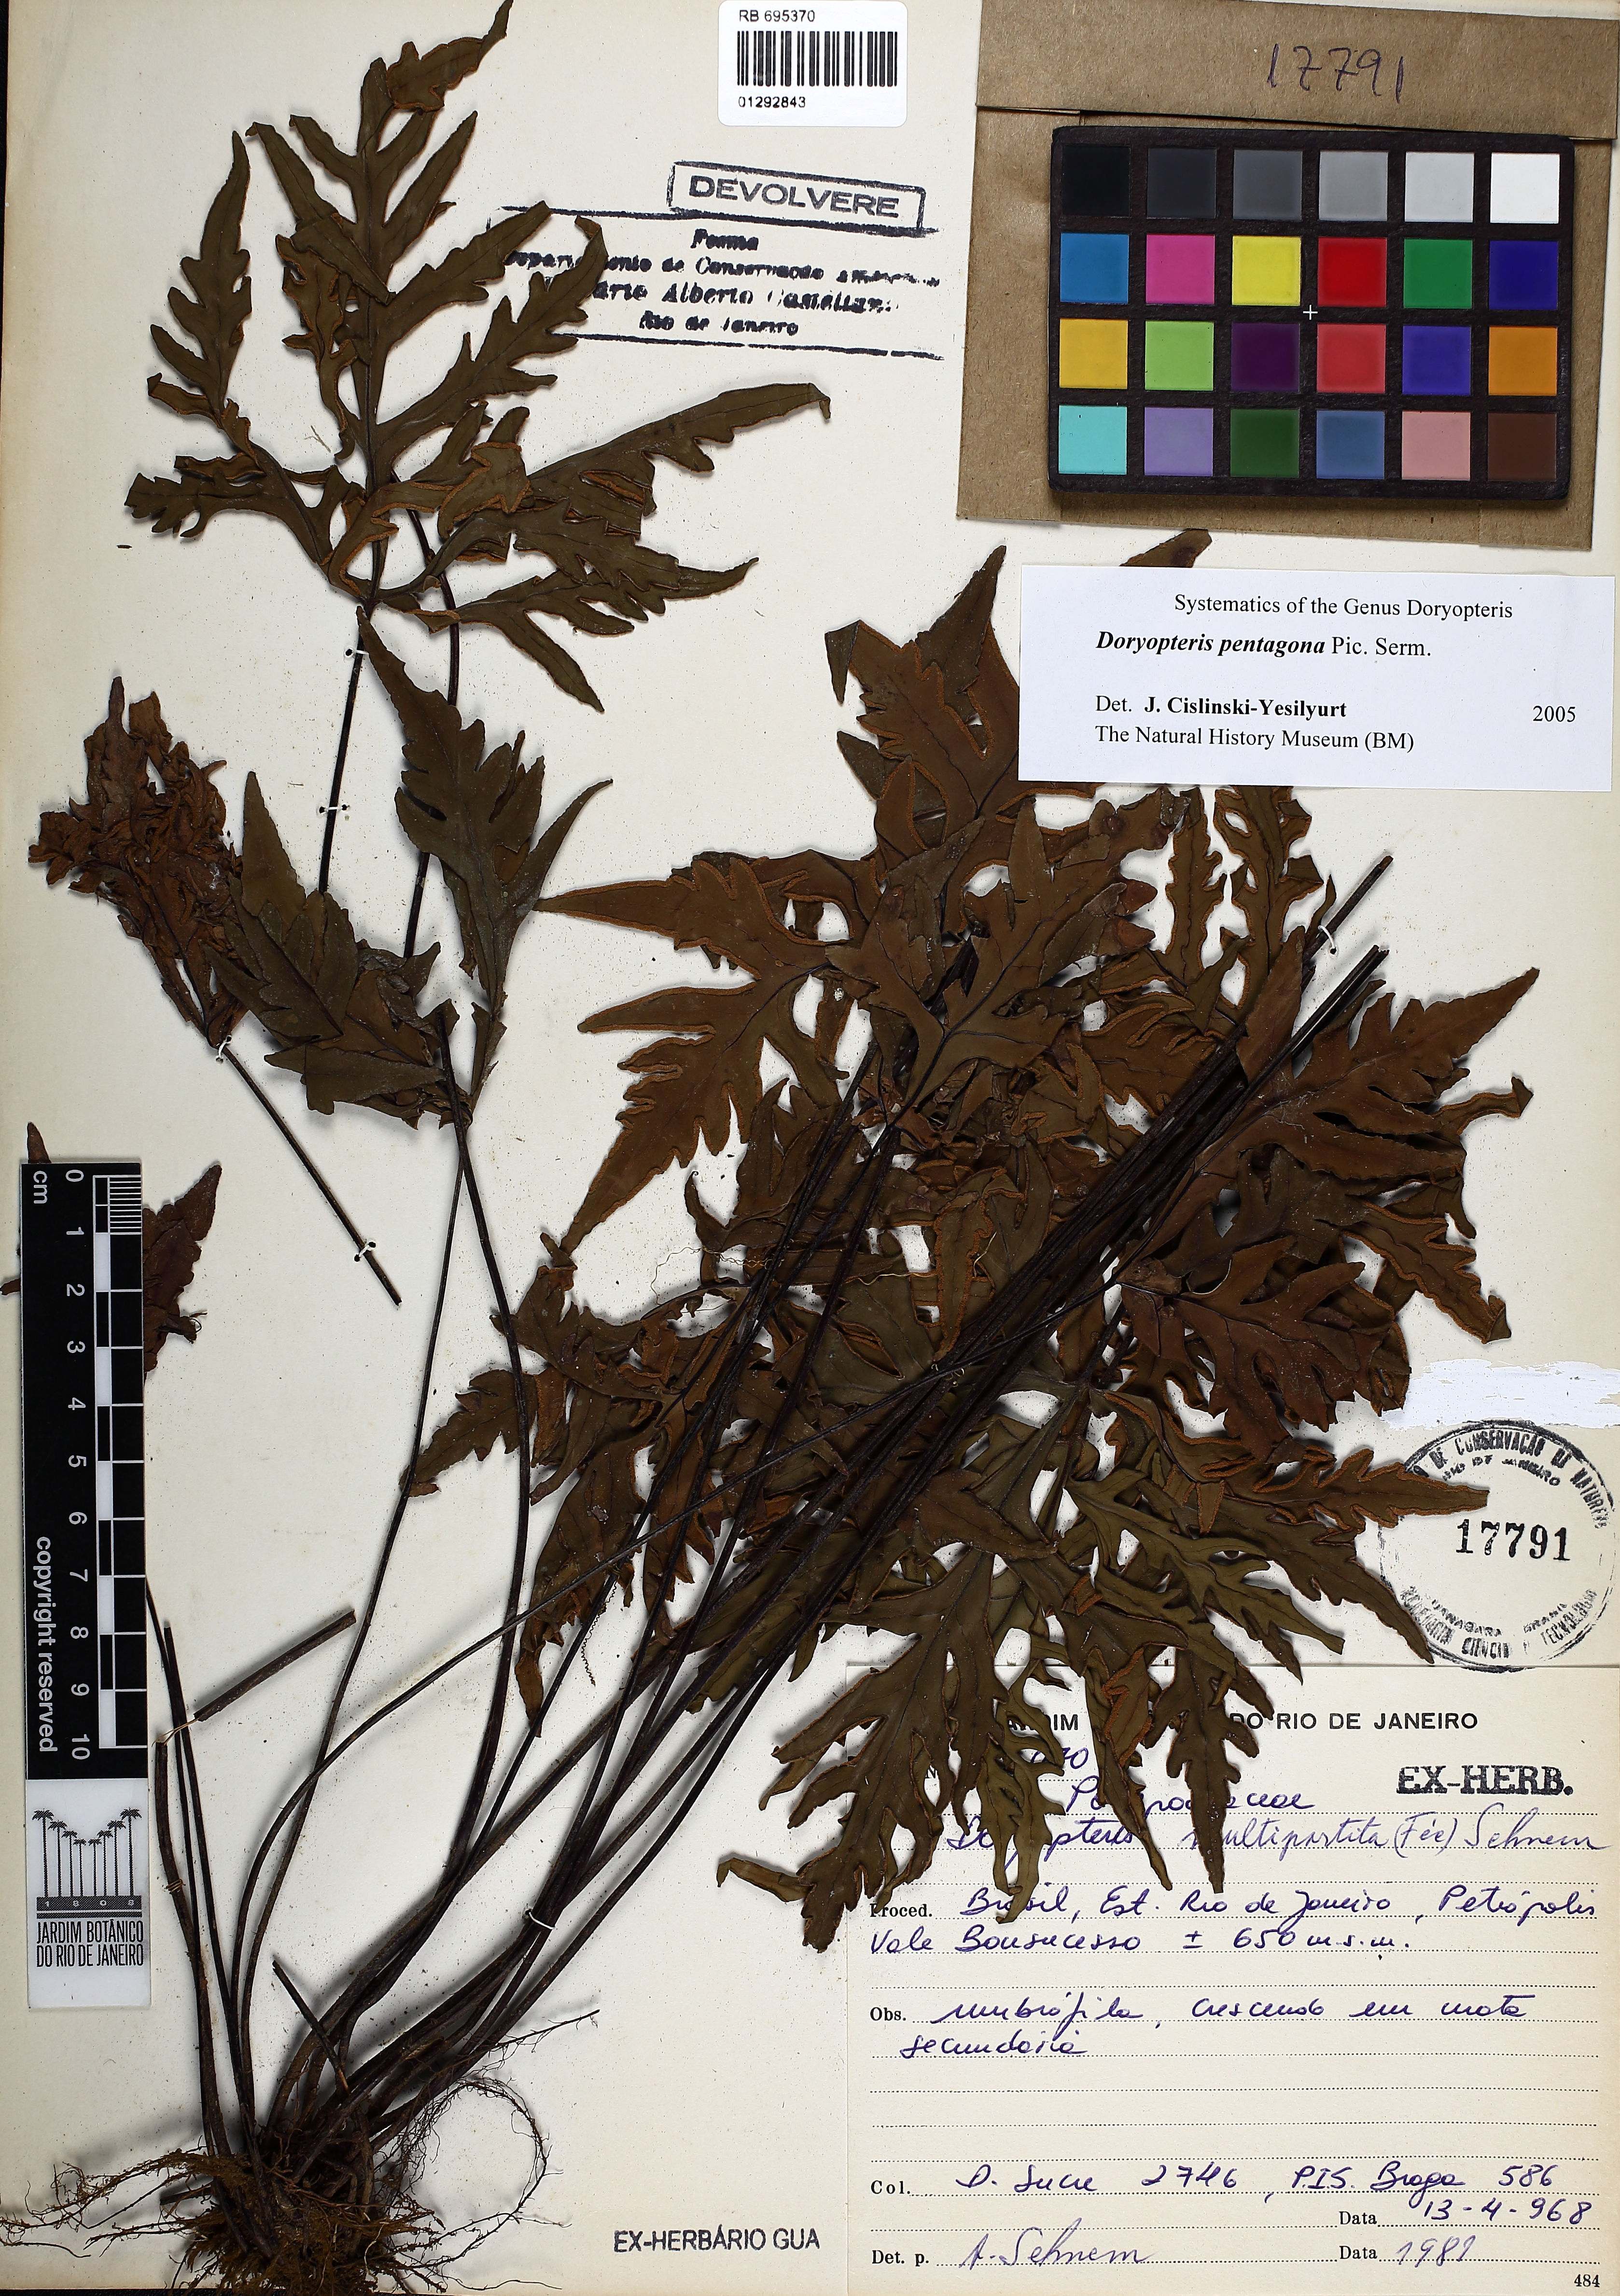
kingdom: Plantae
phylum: Tracheophyta
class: Polypodiopsida
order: Polypodiales
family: Pteridaceae
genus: Doryopteris
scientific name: Doryopteris pentagona
